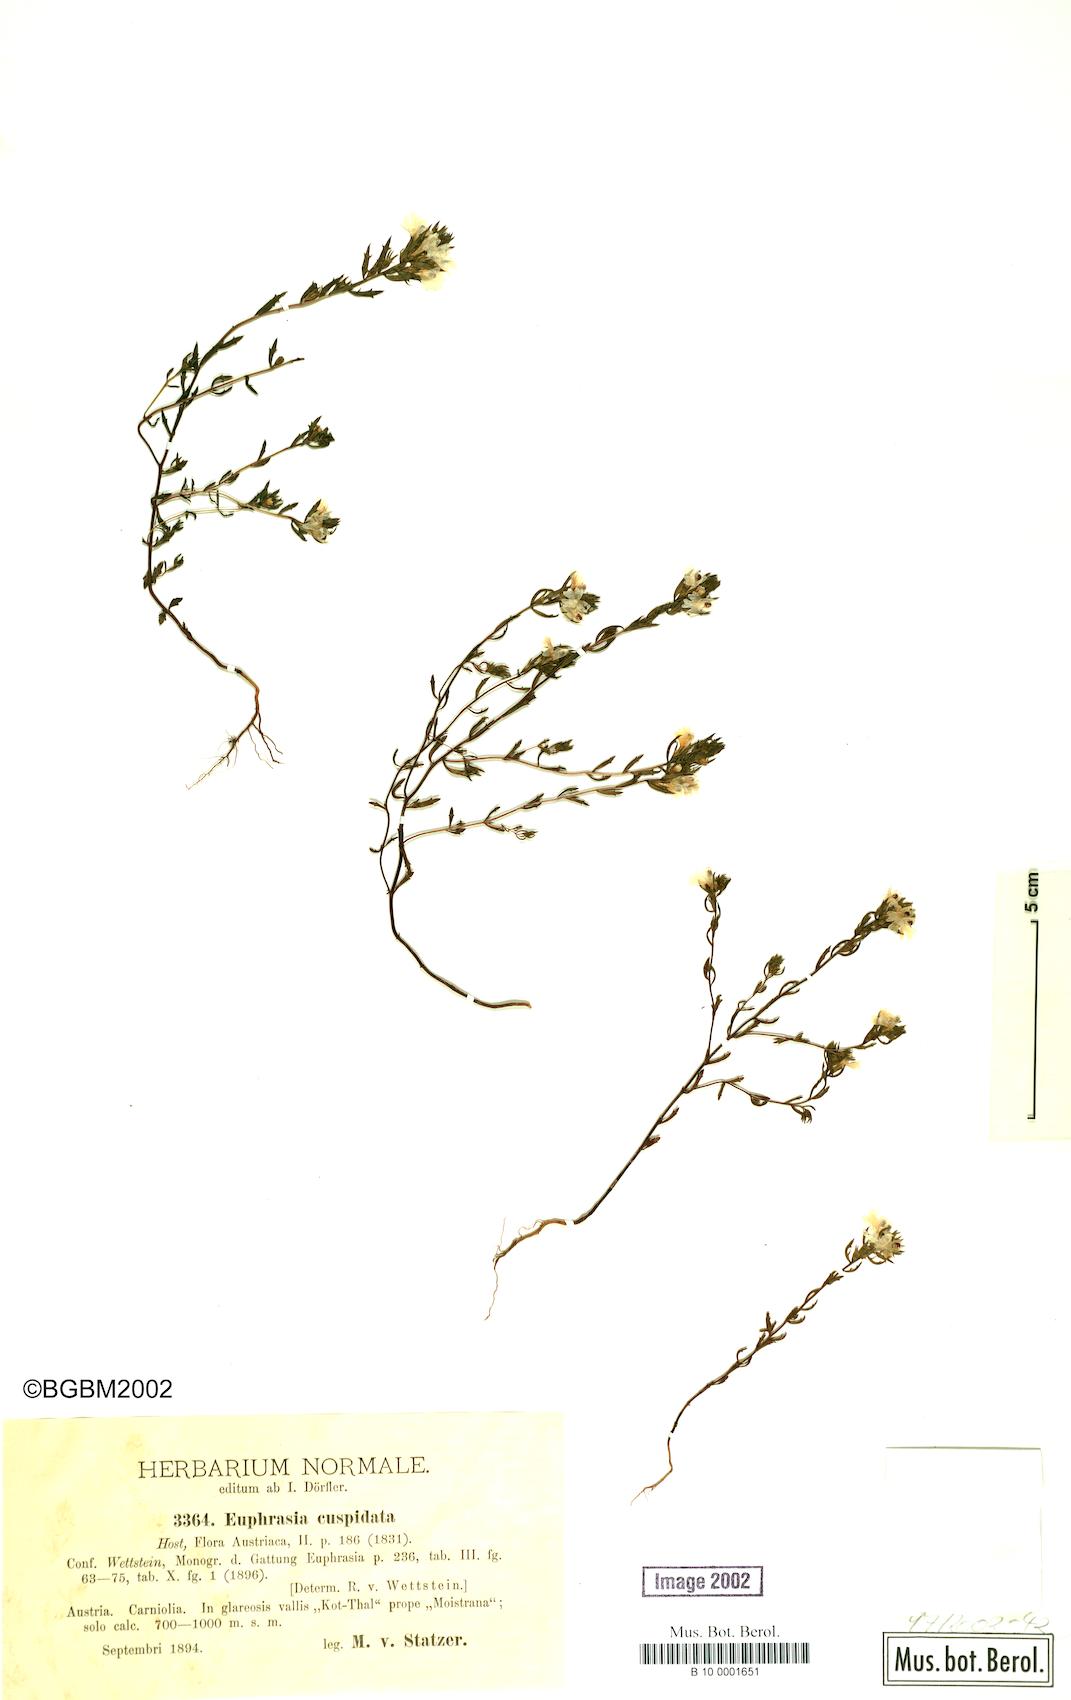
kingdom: Plantae
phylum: Tracheophyta
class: Magnoliopsida
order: Lamiales
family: Orobanchaceae
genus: Euphrasia
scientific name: Euphrasia cuspidata
